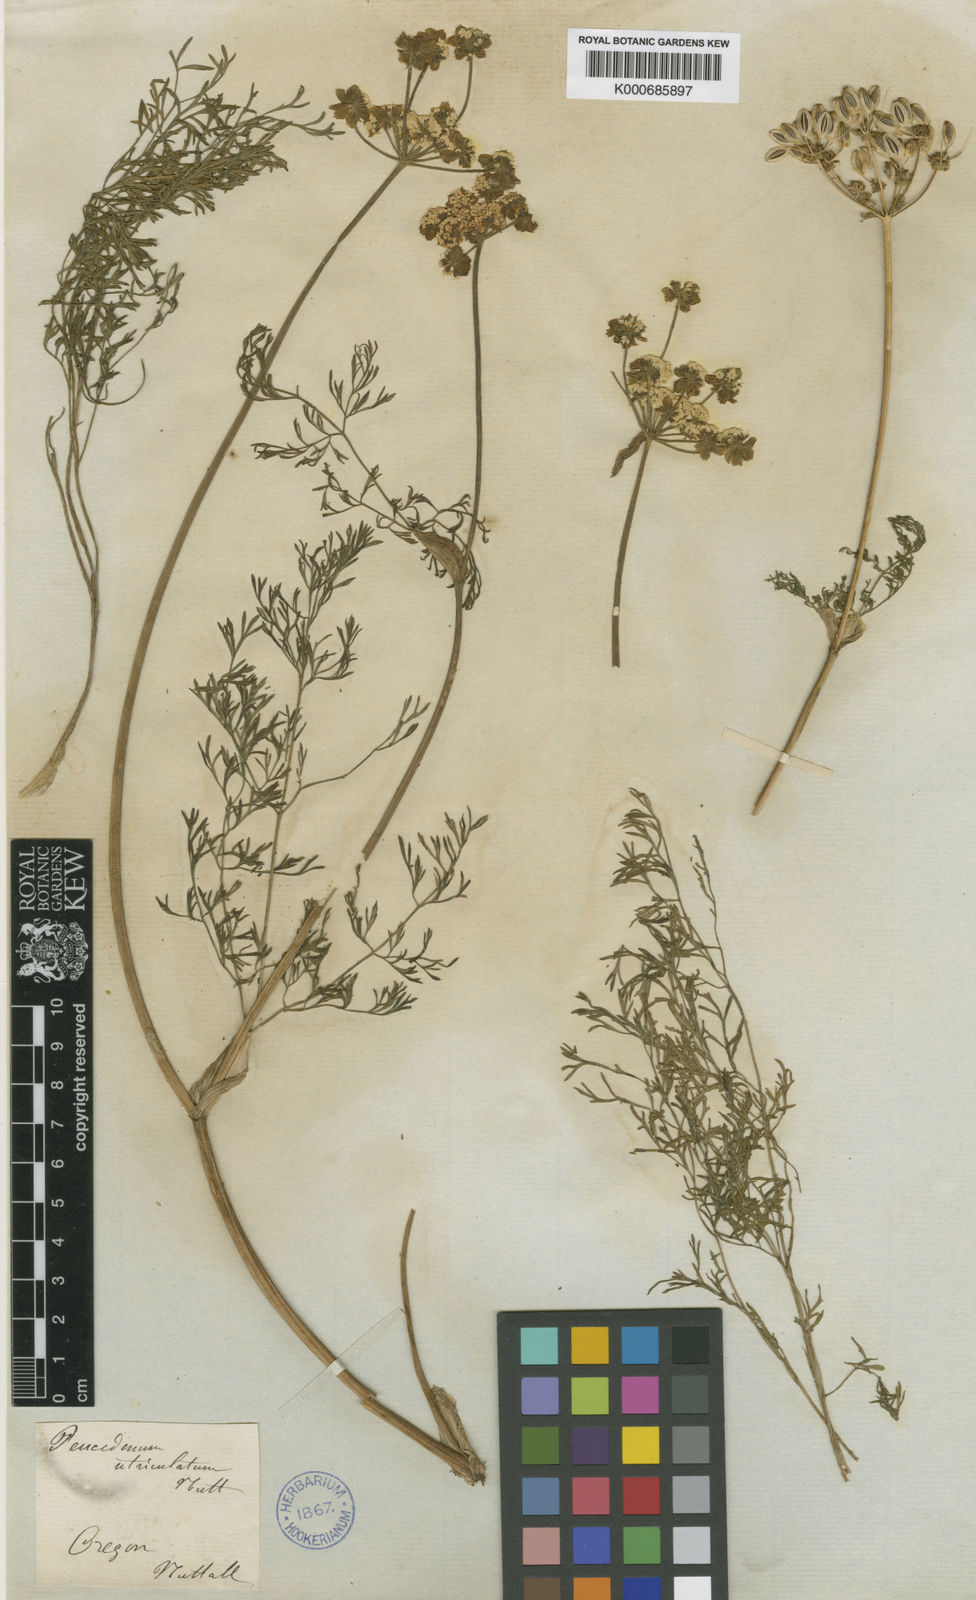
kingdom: Plantae
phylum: Tracheophyta
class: Magnoliopsida
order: Apiales
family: Apiaceae
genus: Lomatium
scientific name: Lomatium utriculatum
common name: Fine-leaf desert-parsley
